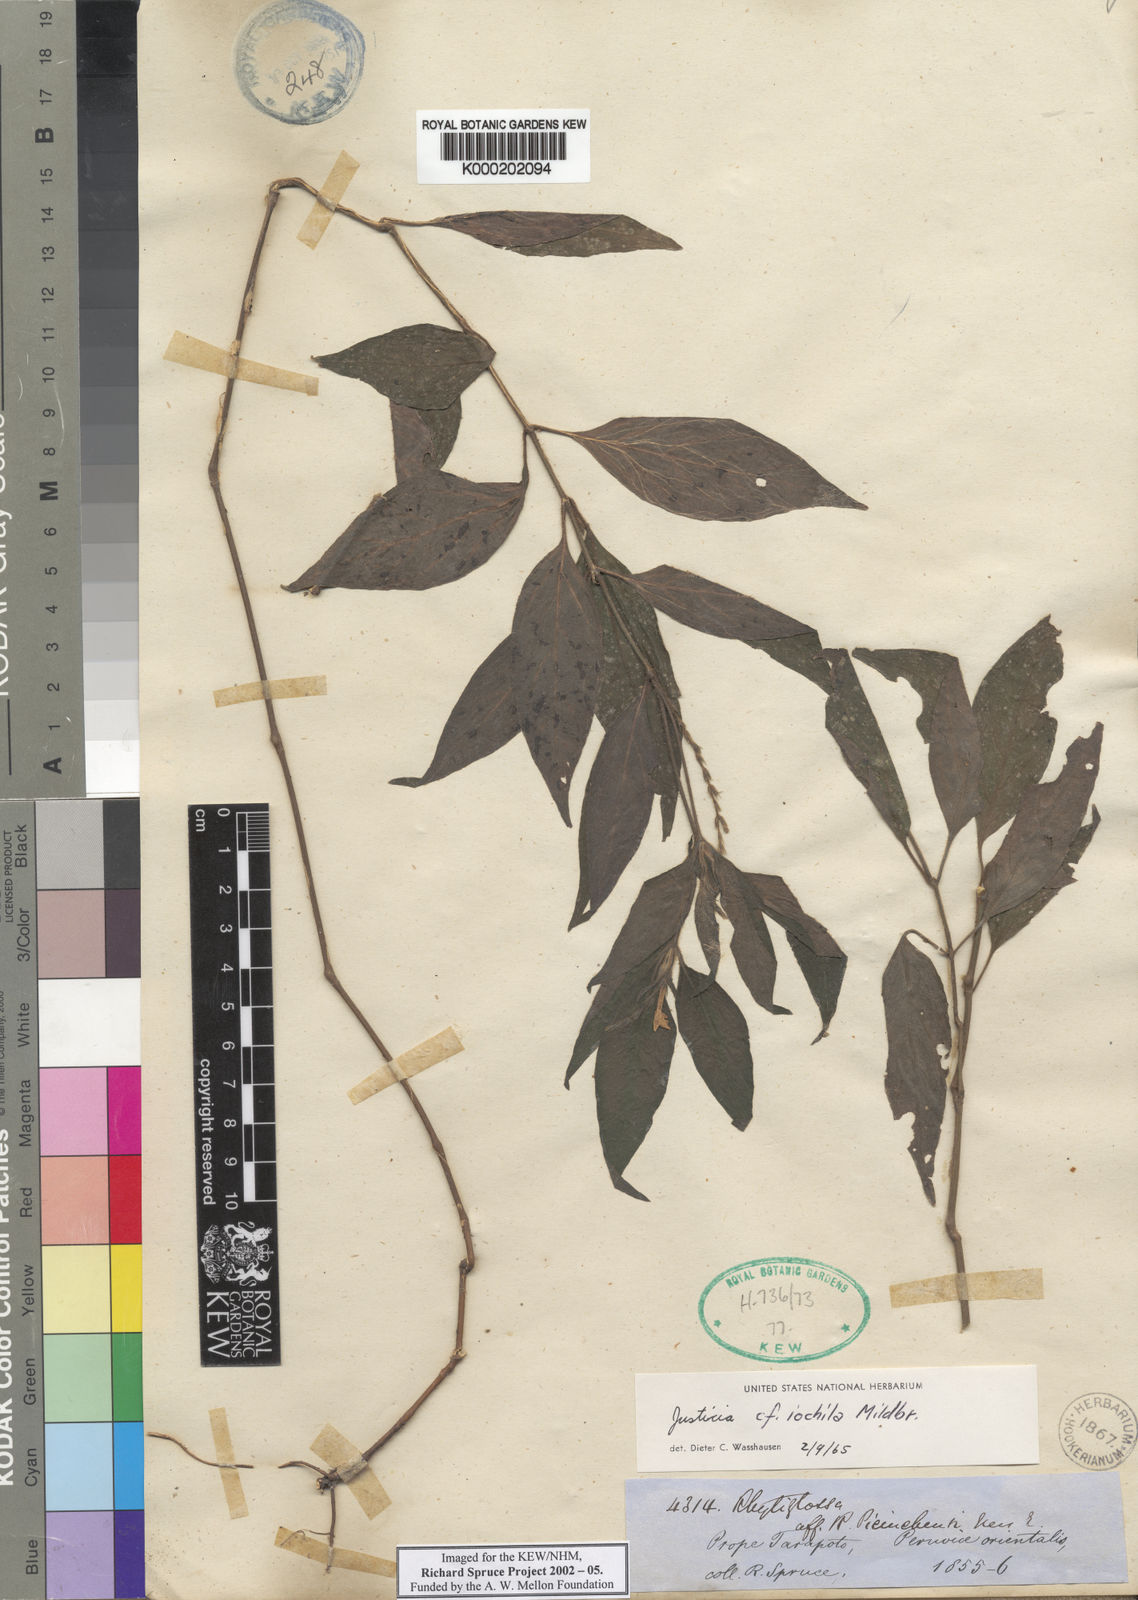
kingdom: Plantae
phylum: Tracheophyta
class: Magnoliopsida
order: Lamiales
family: Acanthaceae
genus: Justicia
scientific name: Justicia iochila
